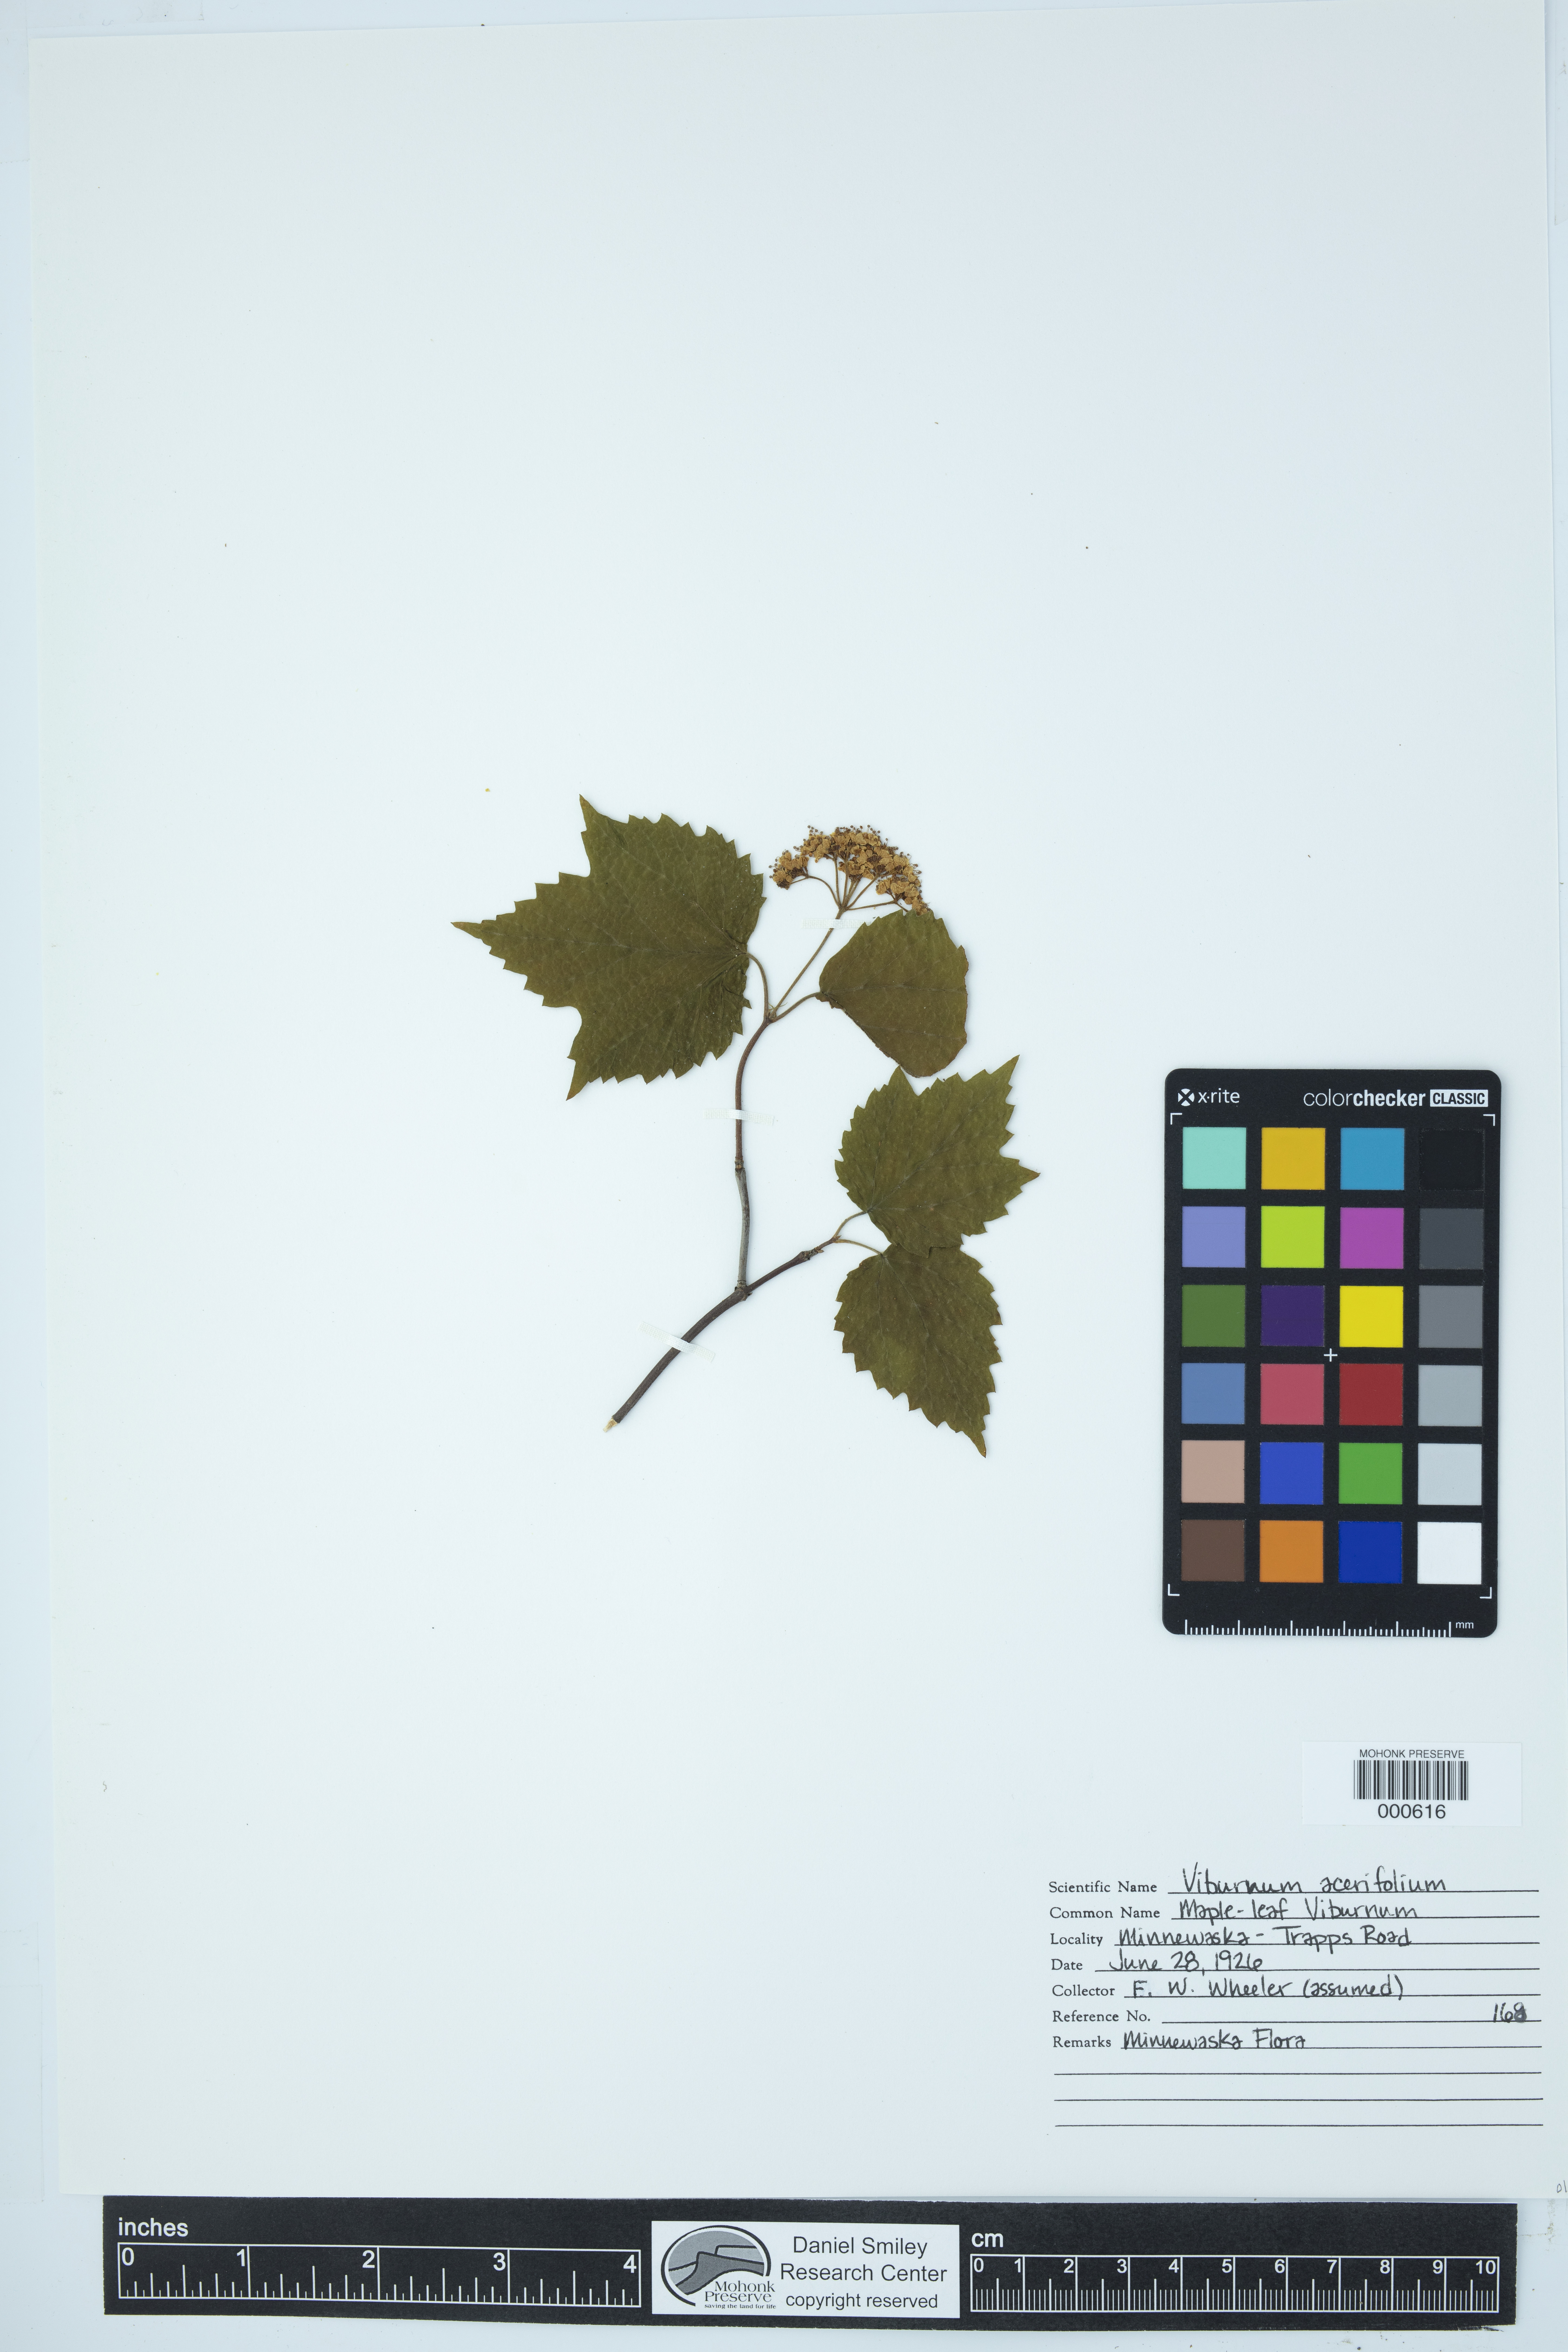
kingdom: Plantae
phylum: Tracheophyta
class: Magnoliopsida
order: Dipsacales
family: Viburnaceae
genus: Viburnum
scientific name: Viburnum acerifolium
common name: Dockmackie
